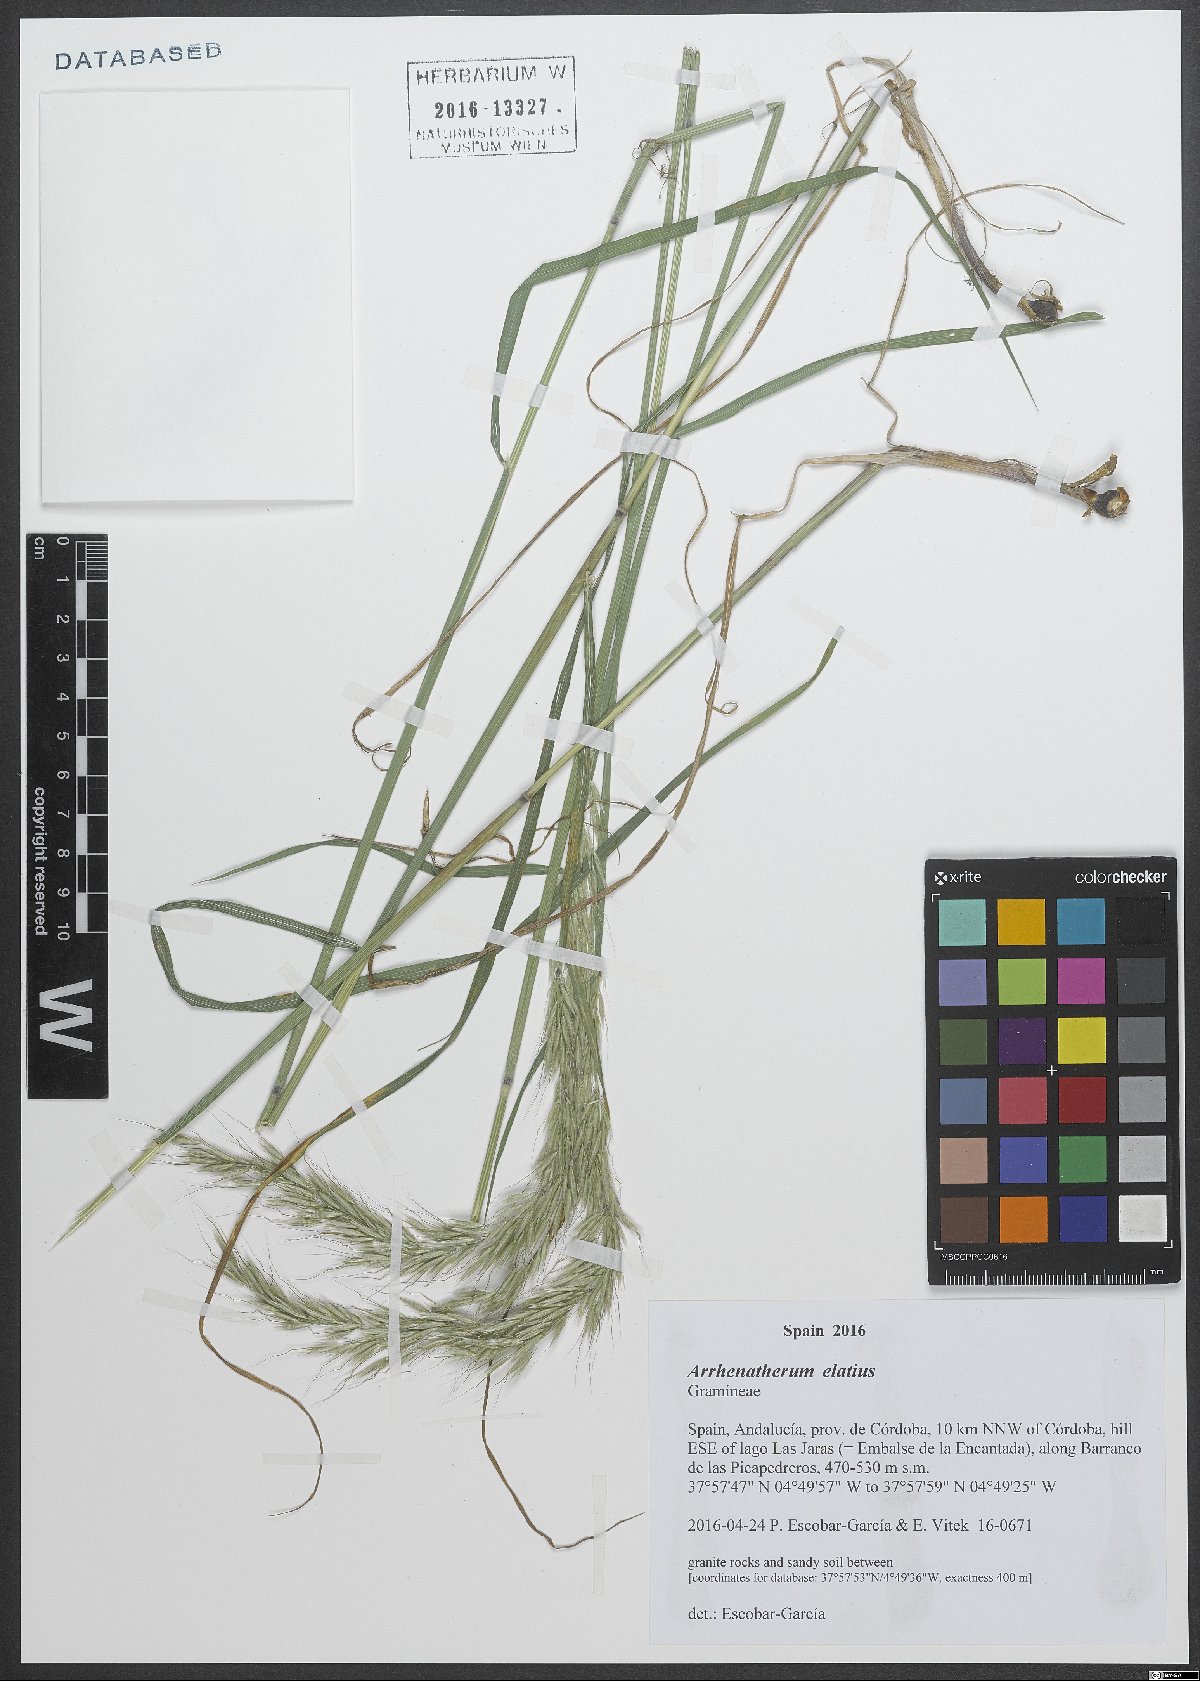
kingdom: Plantae
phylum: Tracheophyta
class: Liliopsida
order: Poales
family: Poaceae
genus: Arrhenatherum
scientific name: Arrhenatherum elatius
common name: Tall oatgrass
